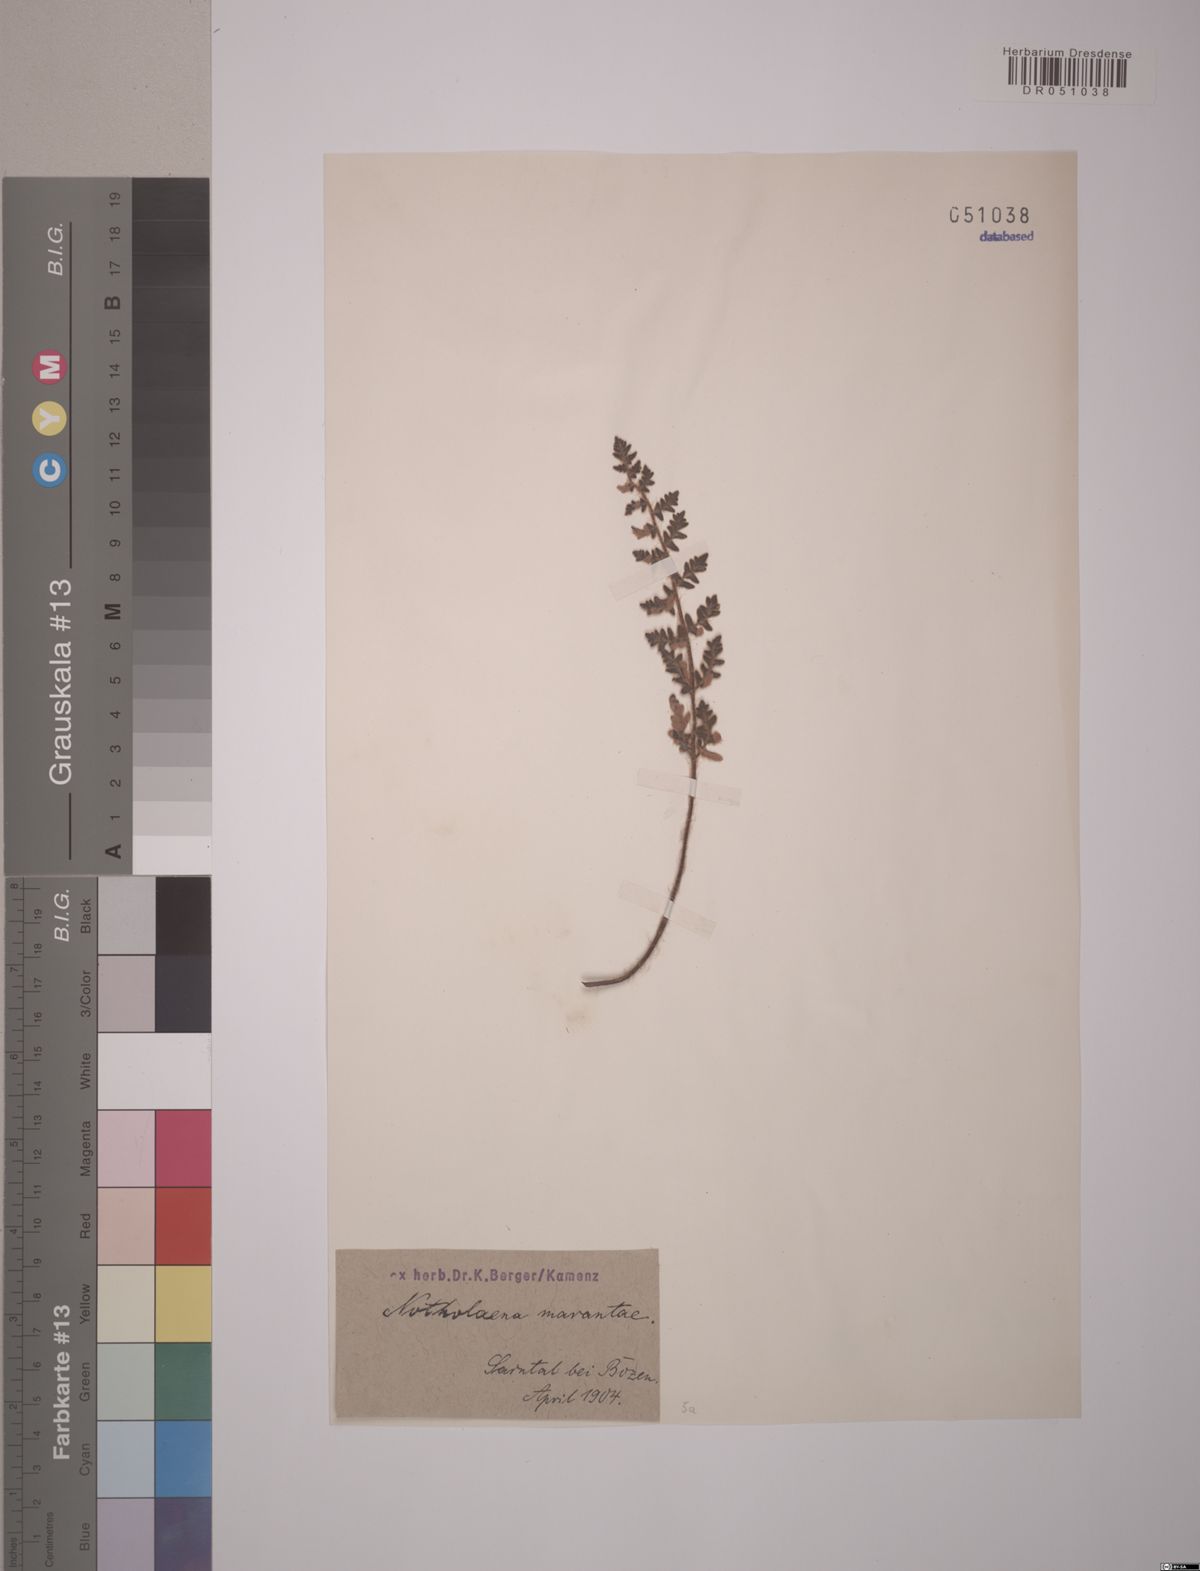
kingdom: Plantae
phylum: Tracheophyta
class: Polypodiopsida
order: Polypodiales
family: Pteridaceae
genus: Paragymnopteris
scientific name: Paragymnopteris marantae
